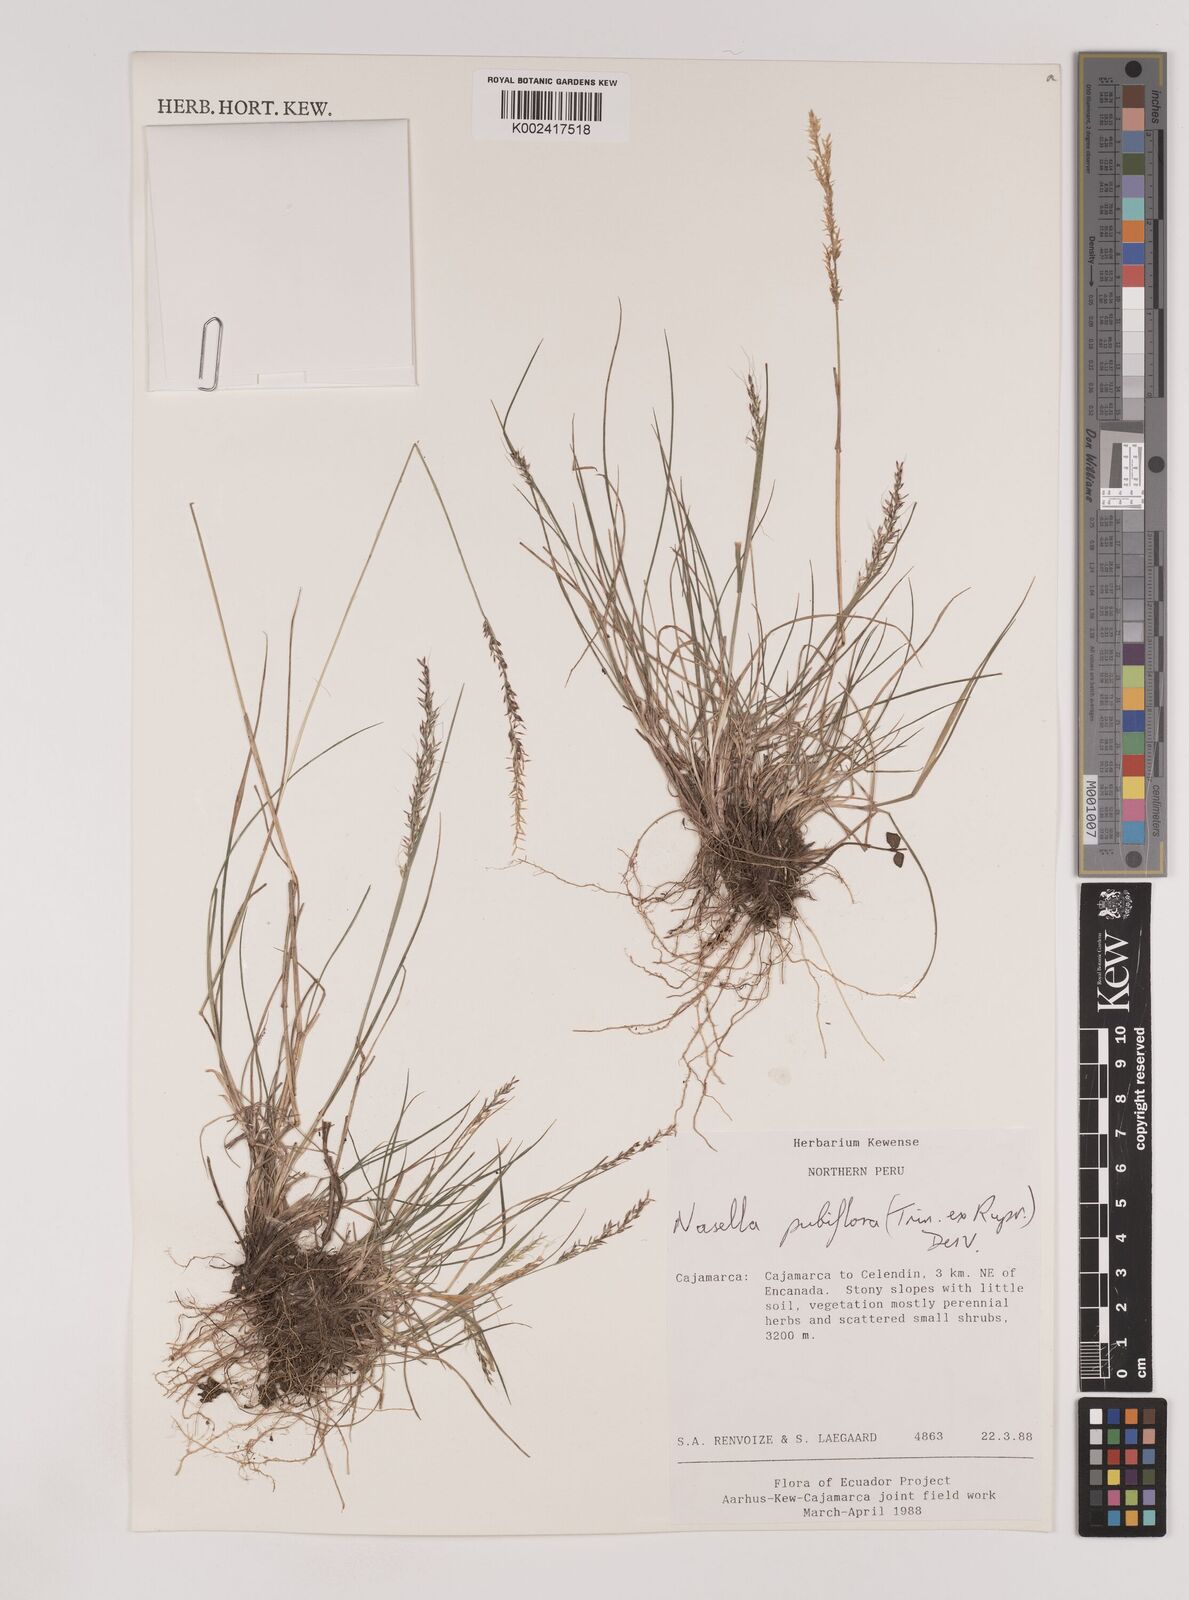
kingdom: Plantae
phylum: Tracheophyta
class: Liliopsida
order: Poales
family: Poaceae
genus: Nassella
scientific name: Nassella pubiflora
